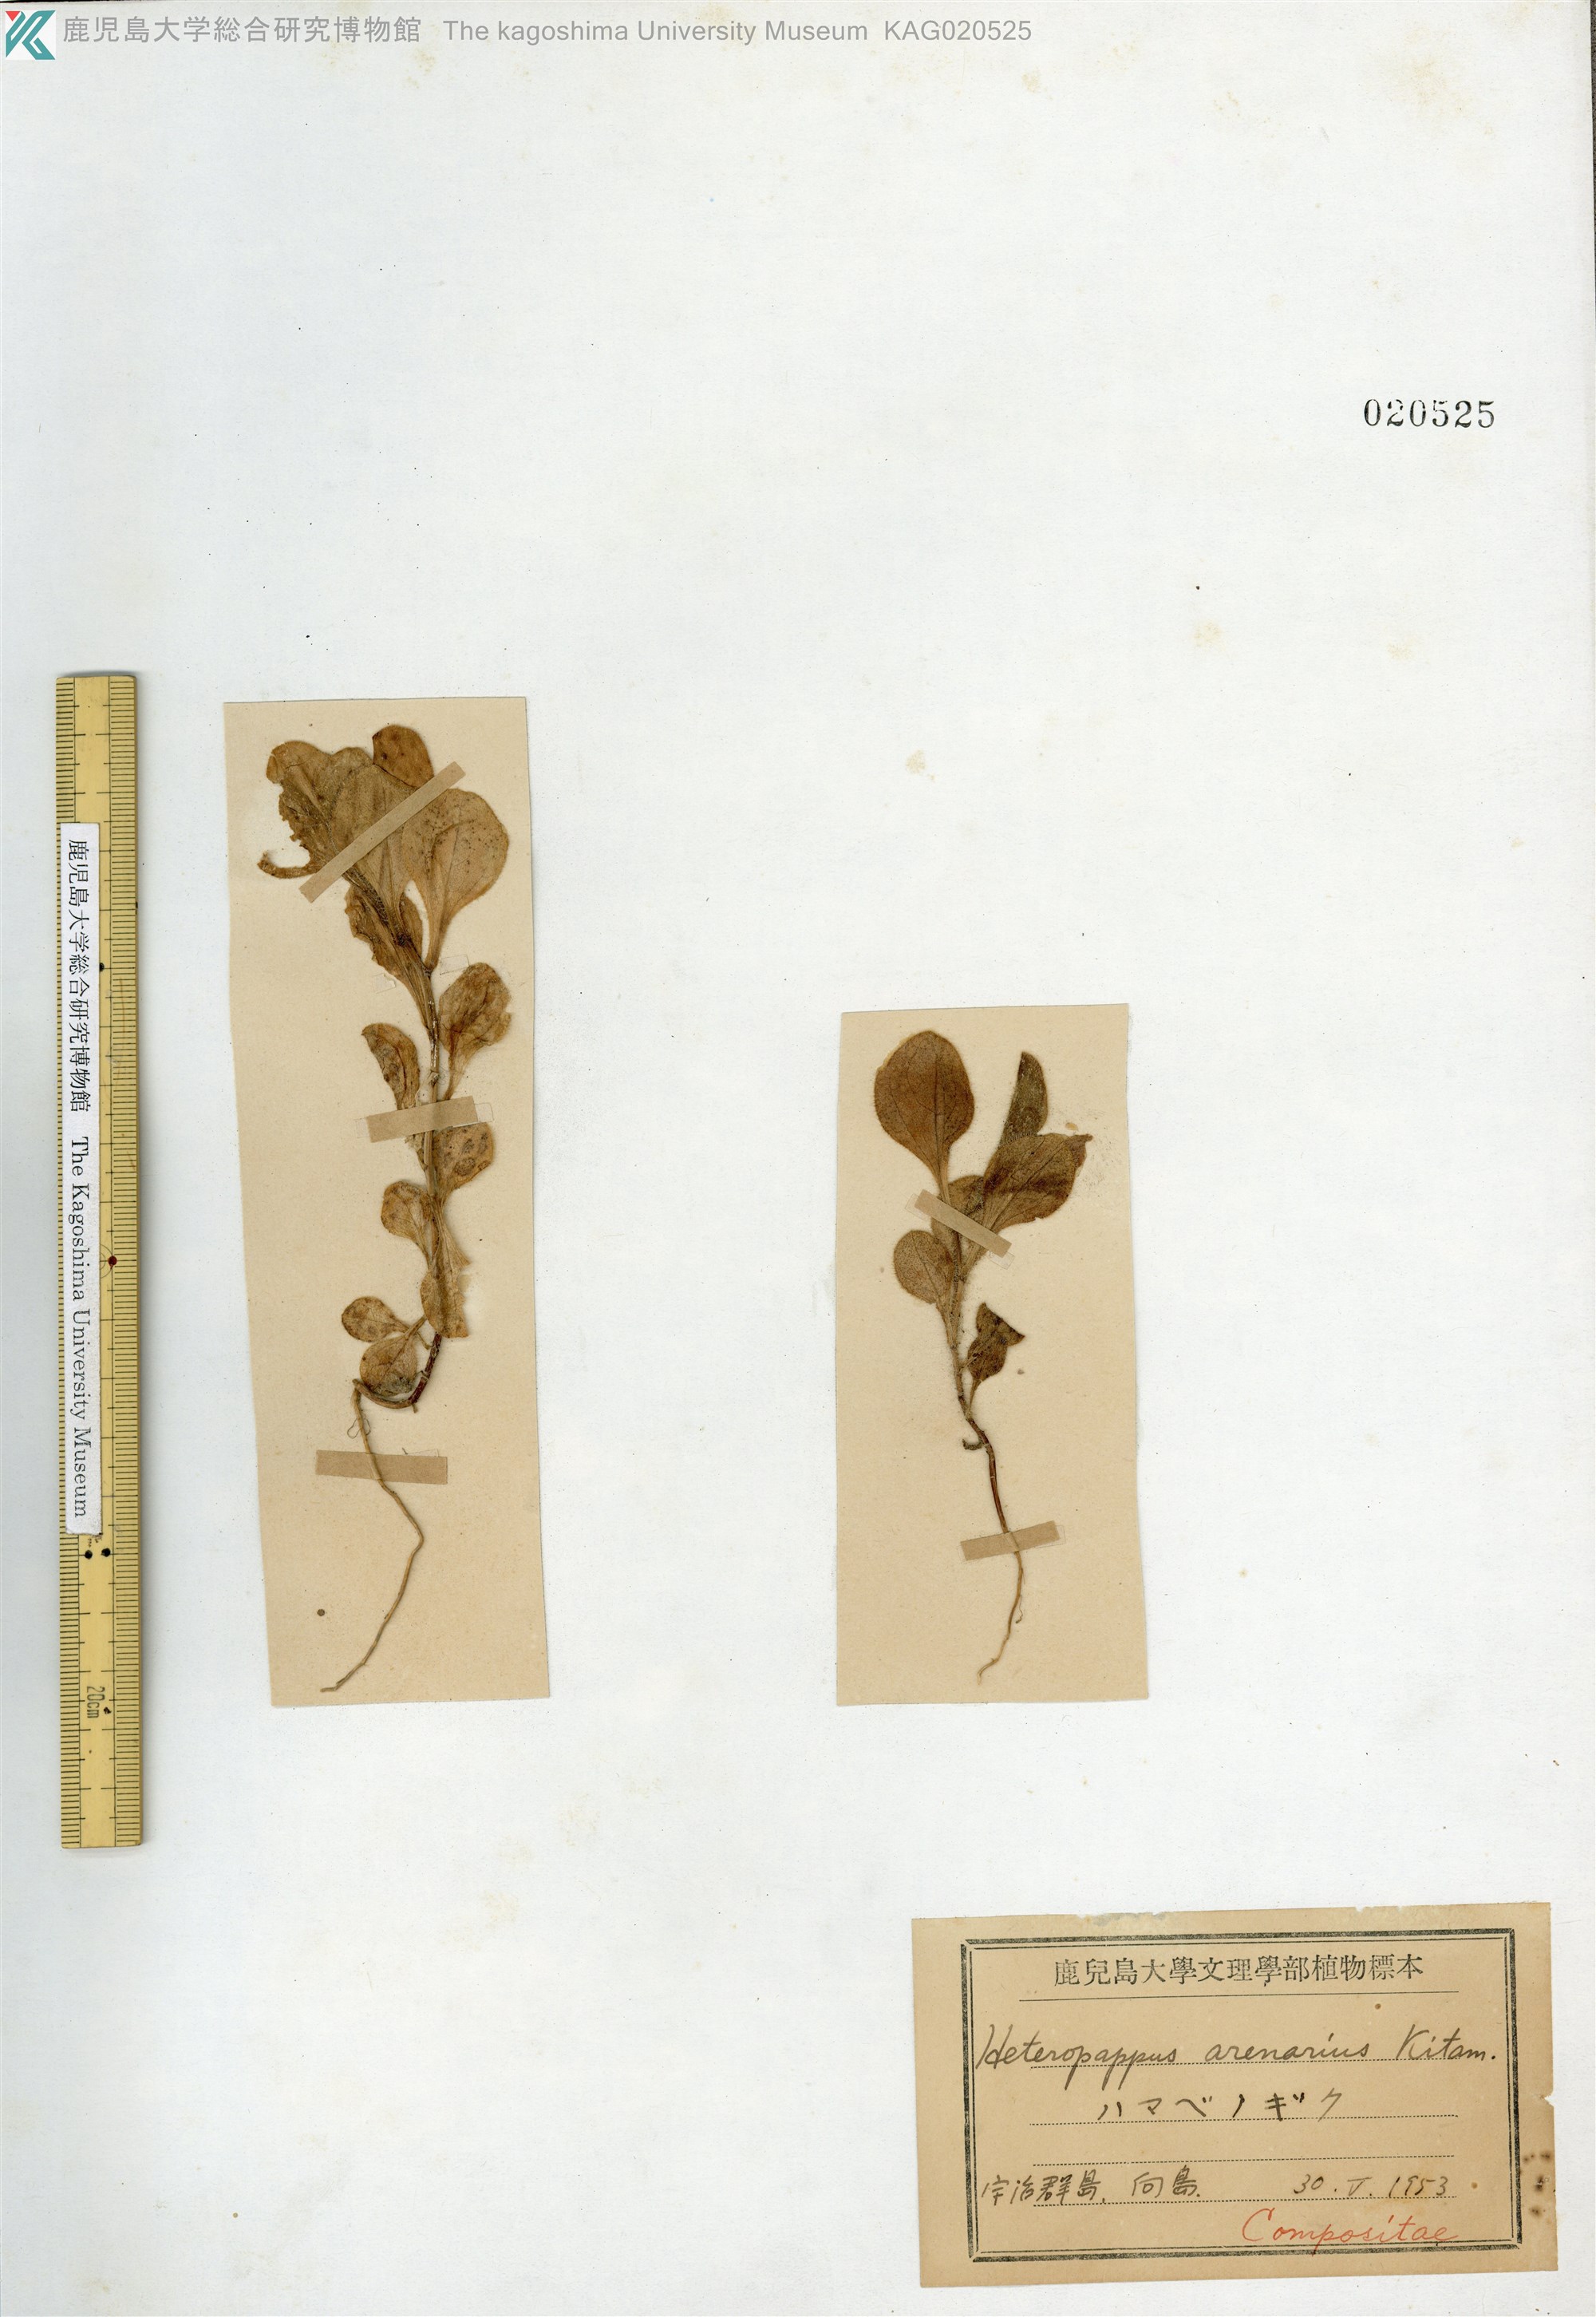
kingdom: Plantae
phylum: Tracheophyta
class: Magnoliopsida
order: Asterales
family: Asteraceae
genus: Aster
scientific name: Aster ujiinsularis
